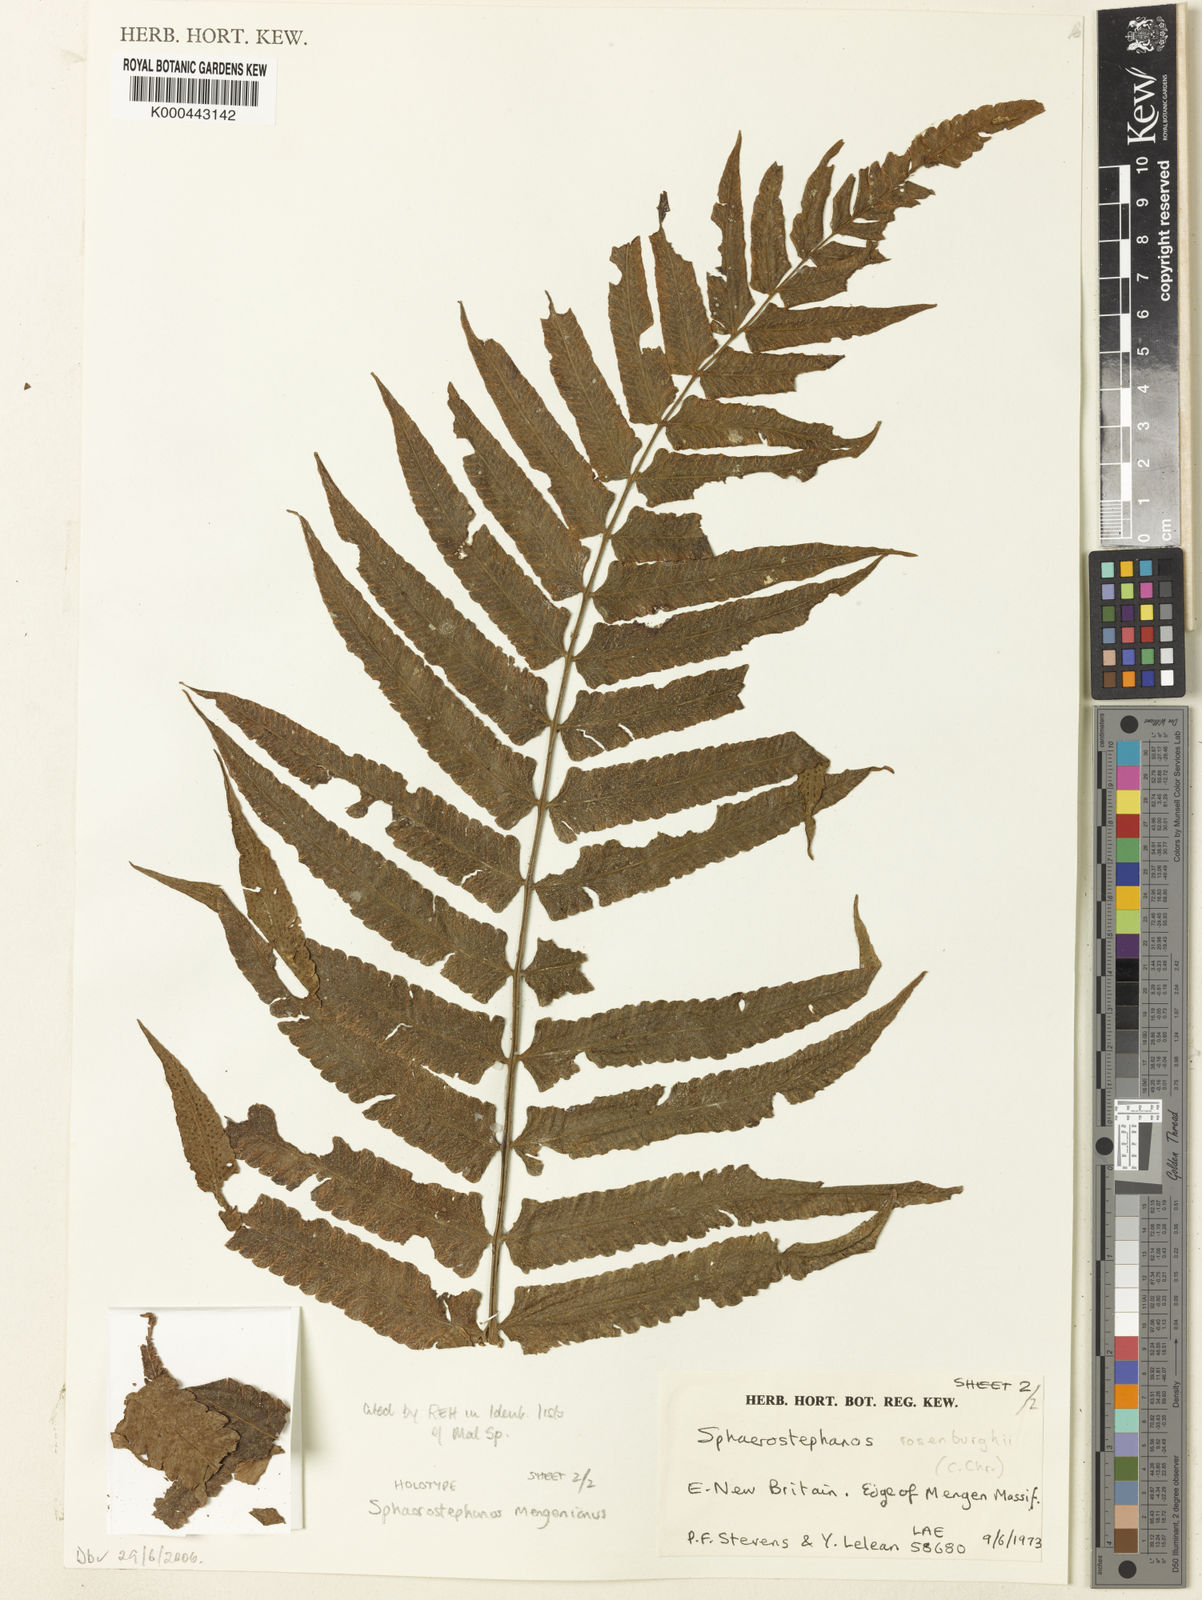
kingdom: Plantae
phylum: Tracheophyta
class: Polypodiopsida
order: Polypodiales
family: Thelypteridaceae
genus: Sphaerostephanos
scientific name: Sphaerostephanos mengenianus
